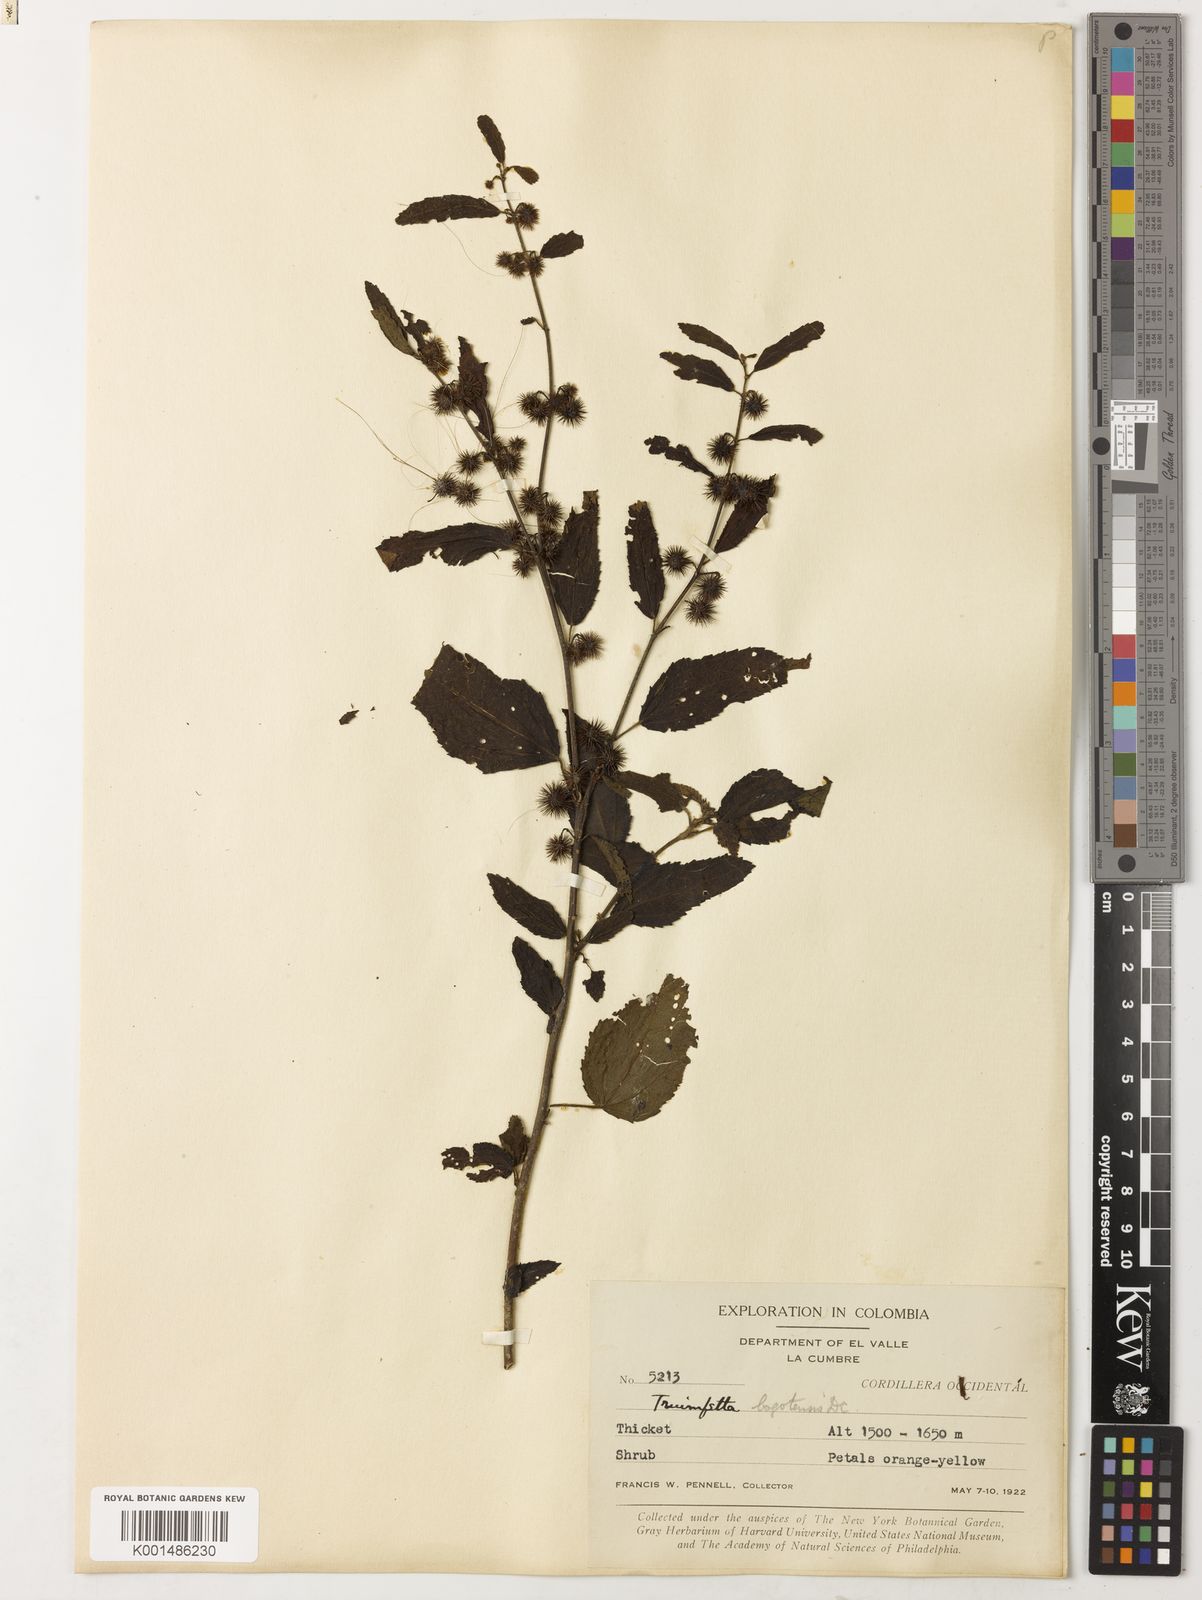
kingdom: Plantae
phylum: Tracheophyta
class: Magnoliopsida
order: Malvales
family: Malvaceae
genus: Triumfetta
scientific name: Triumfetta bogotensis
